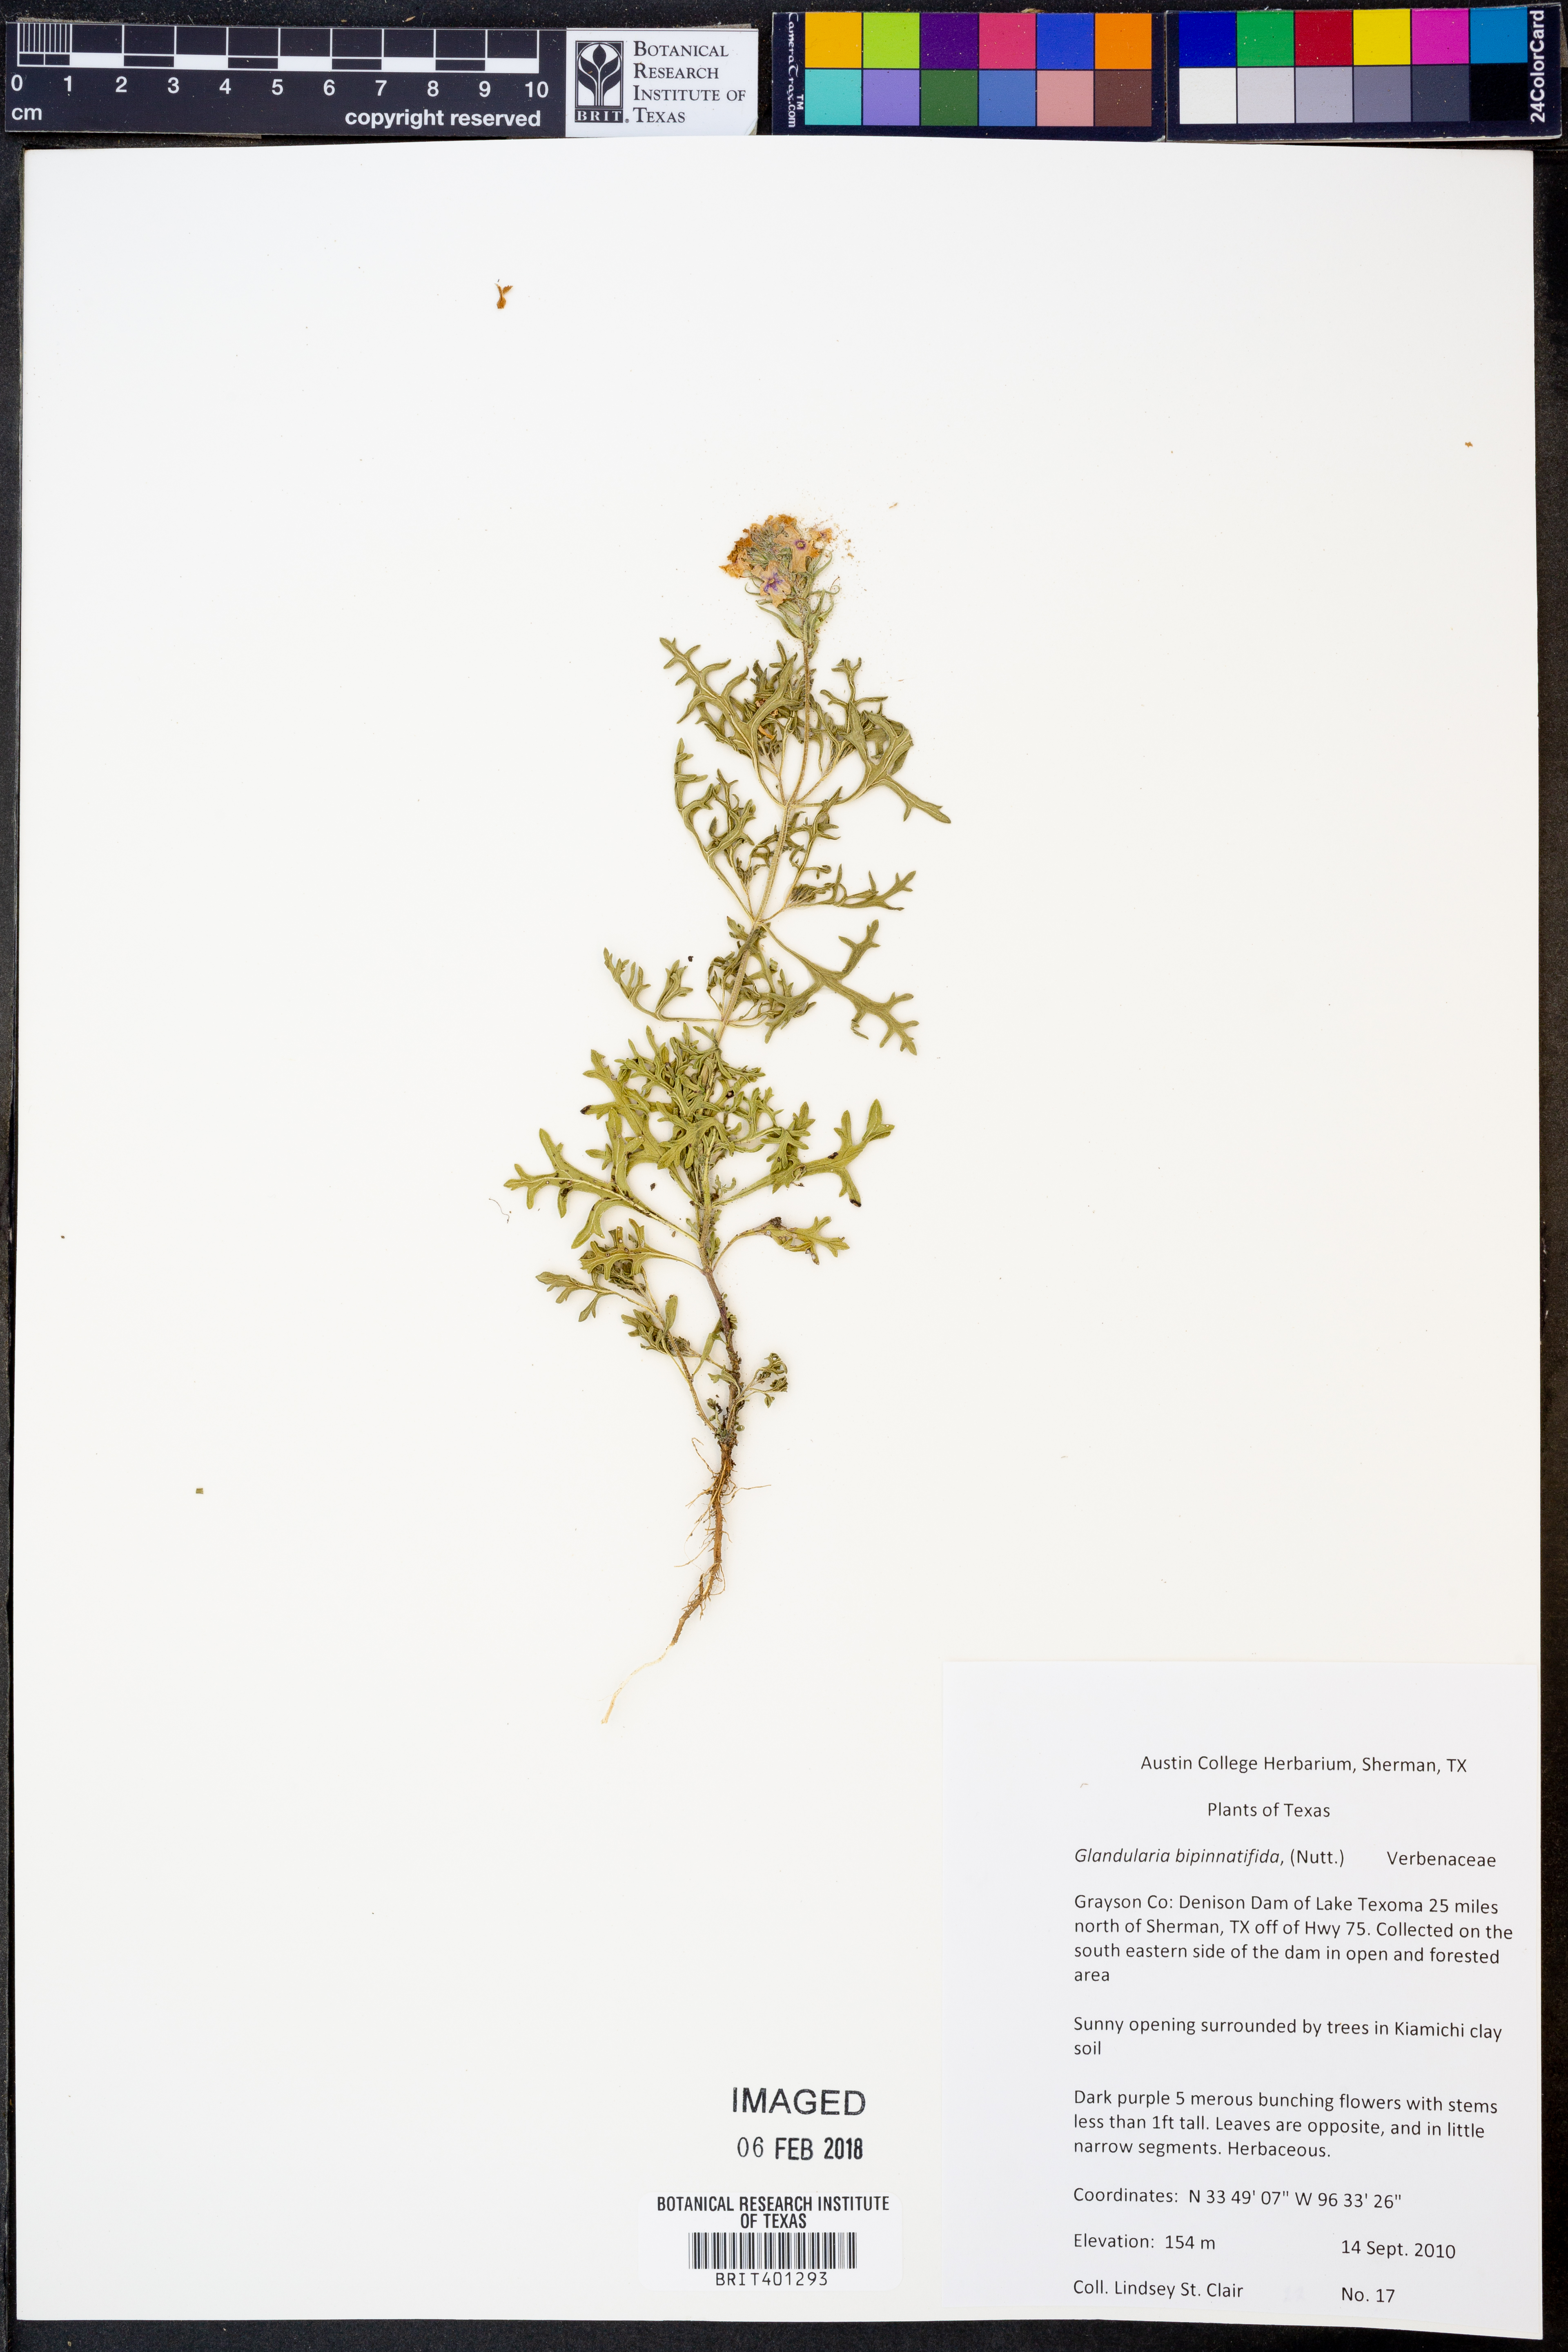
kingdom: Plantae
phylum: Tracheophyta
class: Magnoliopsida
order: Lamiales
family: Verbenaceae
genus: Verbena
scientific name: Verbena bipinnatifida
